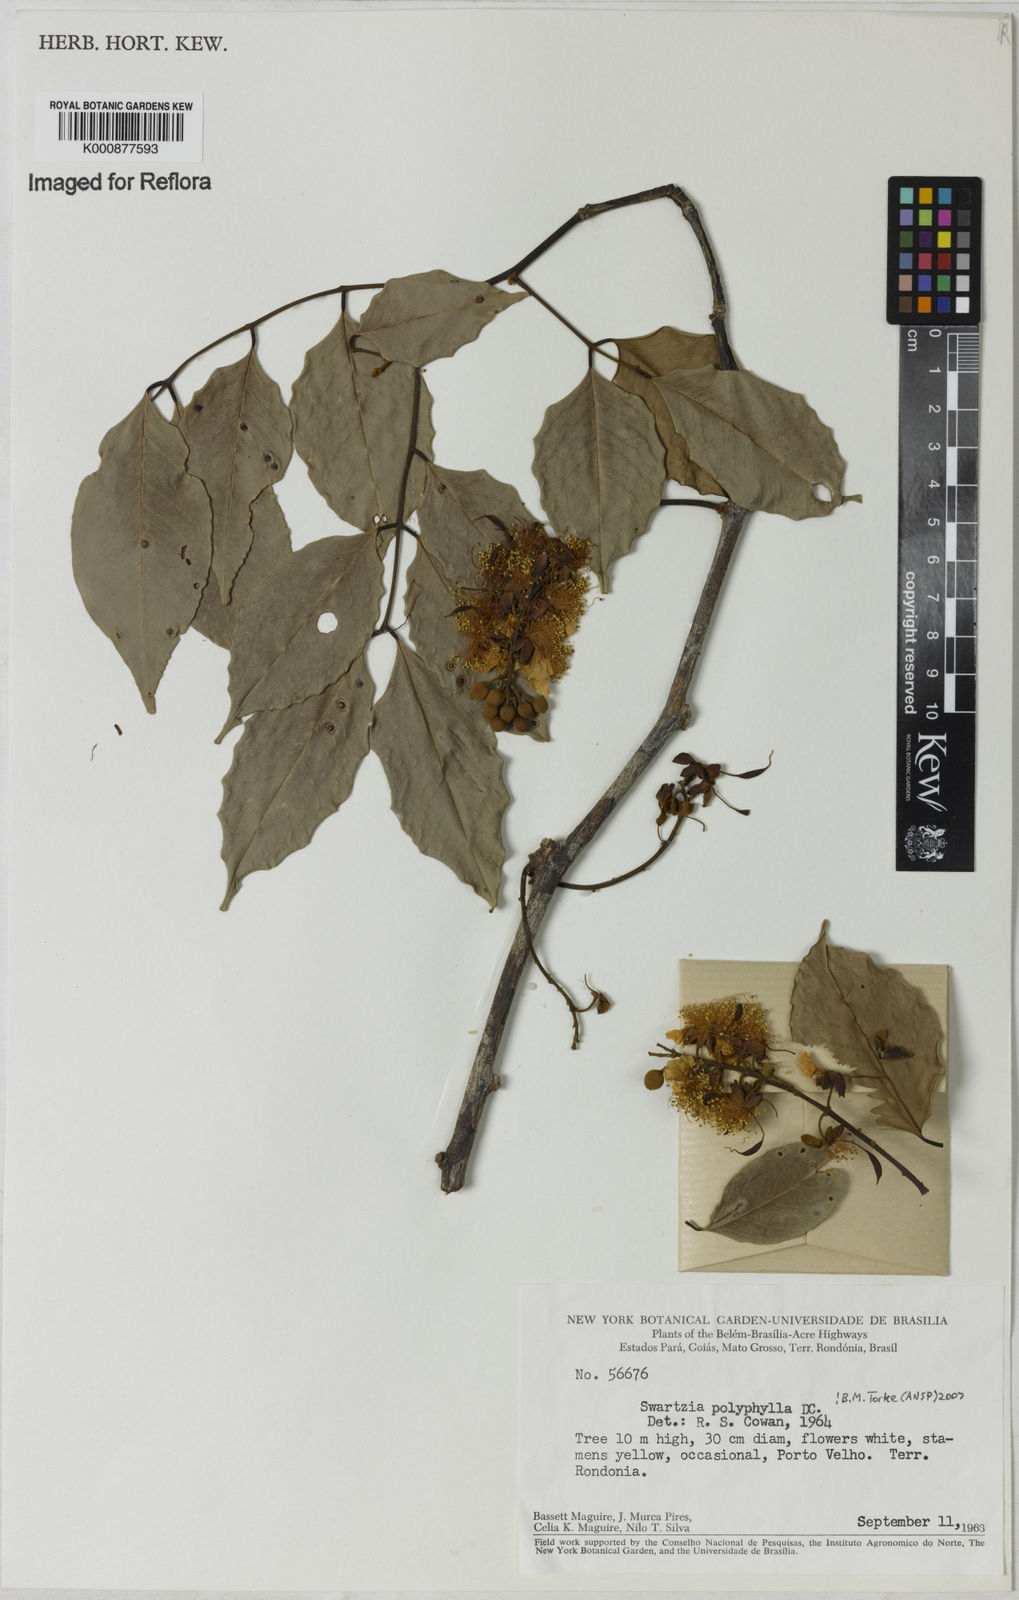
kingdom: Plantae
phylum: Tracheophyta
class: Magnoliopsida
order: Fabales
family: Fabaceae
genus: Swartzia
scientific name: Swartzia polyphylla
